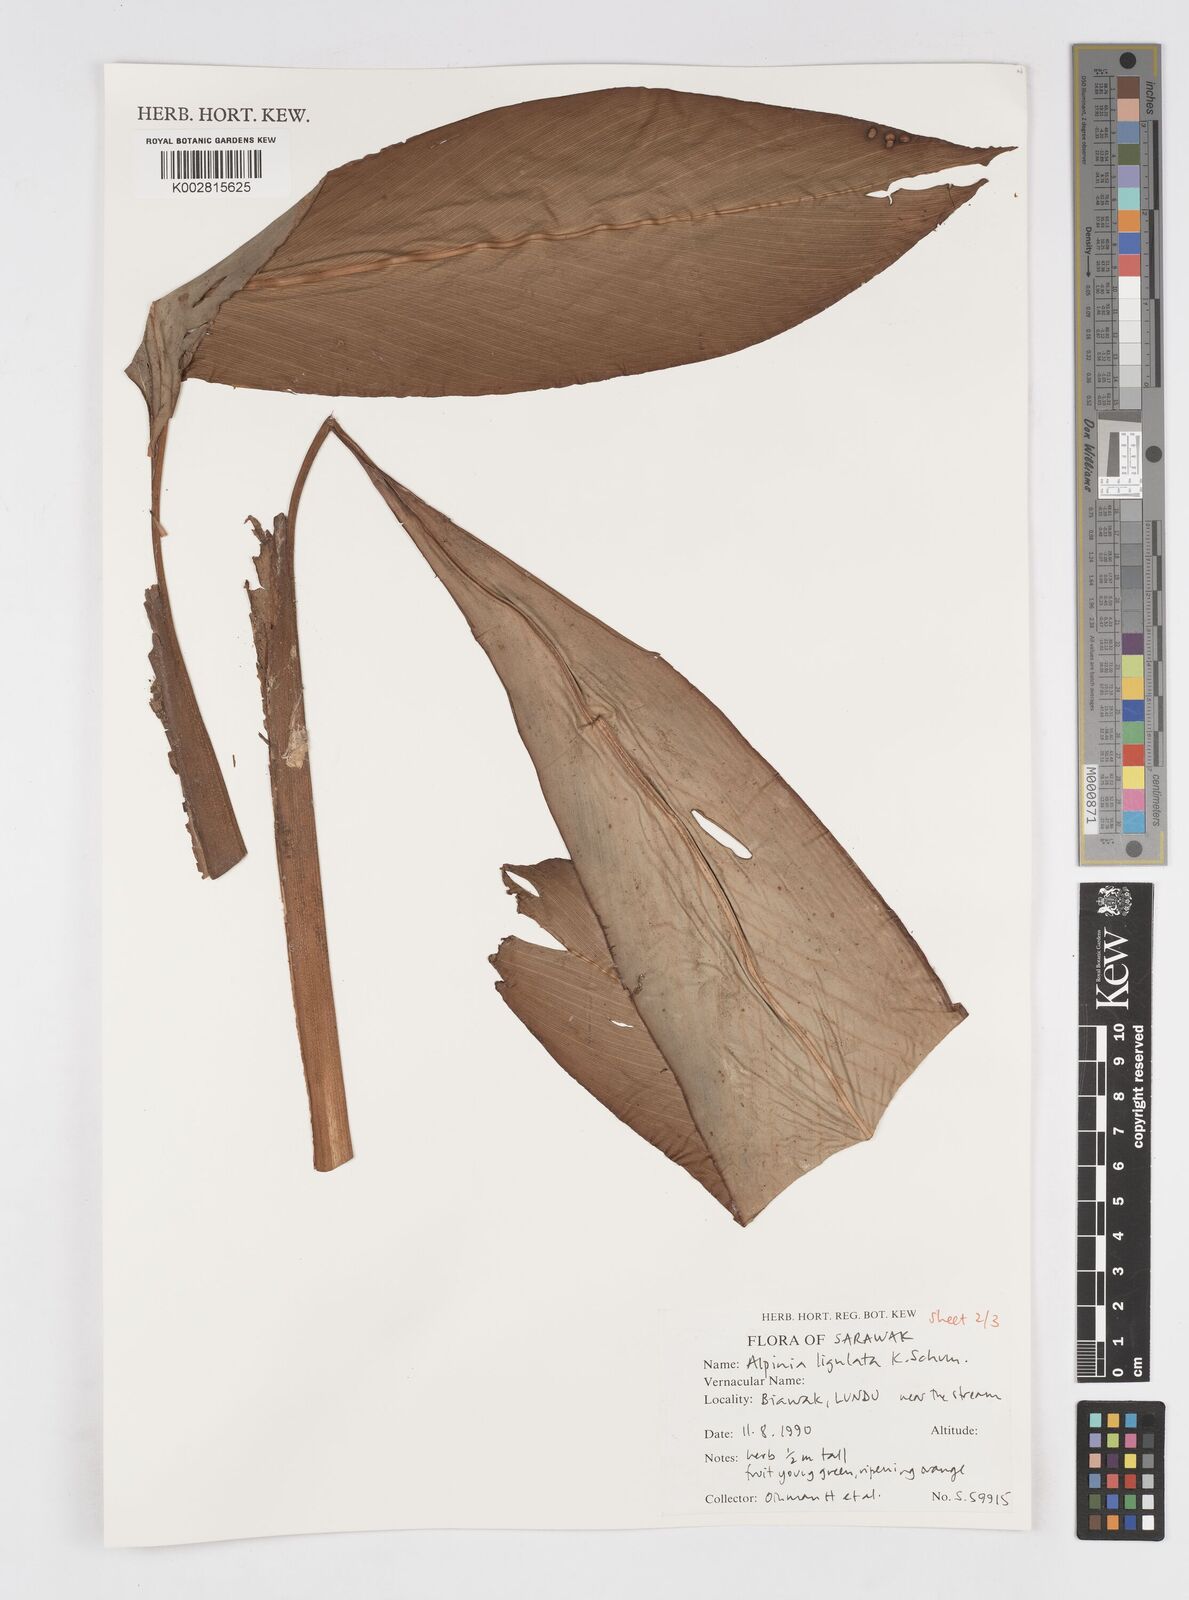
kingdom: Plantae
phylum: Tracheophyta
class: Liliopsida
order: Zingiberales
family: Zingiberaceae
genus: Alpinia
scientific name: Alpinia ligulata
